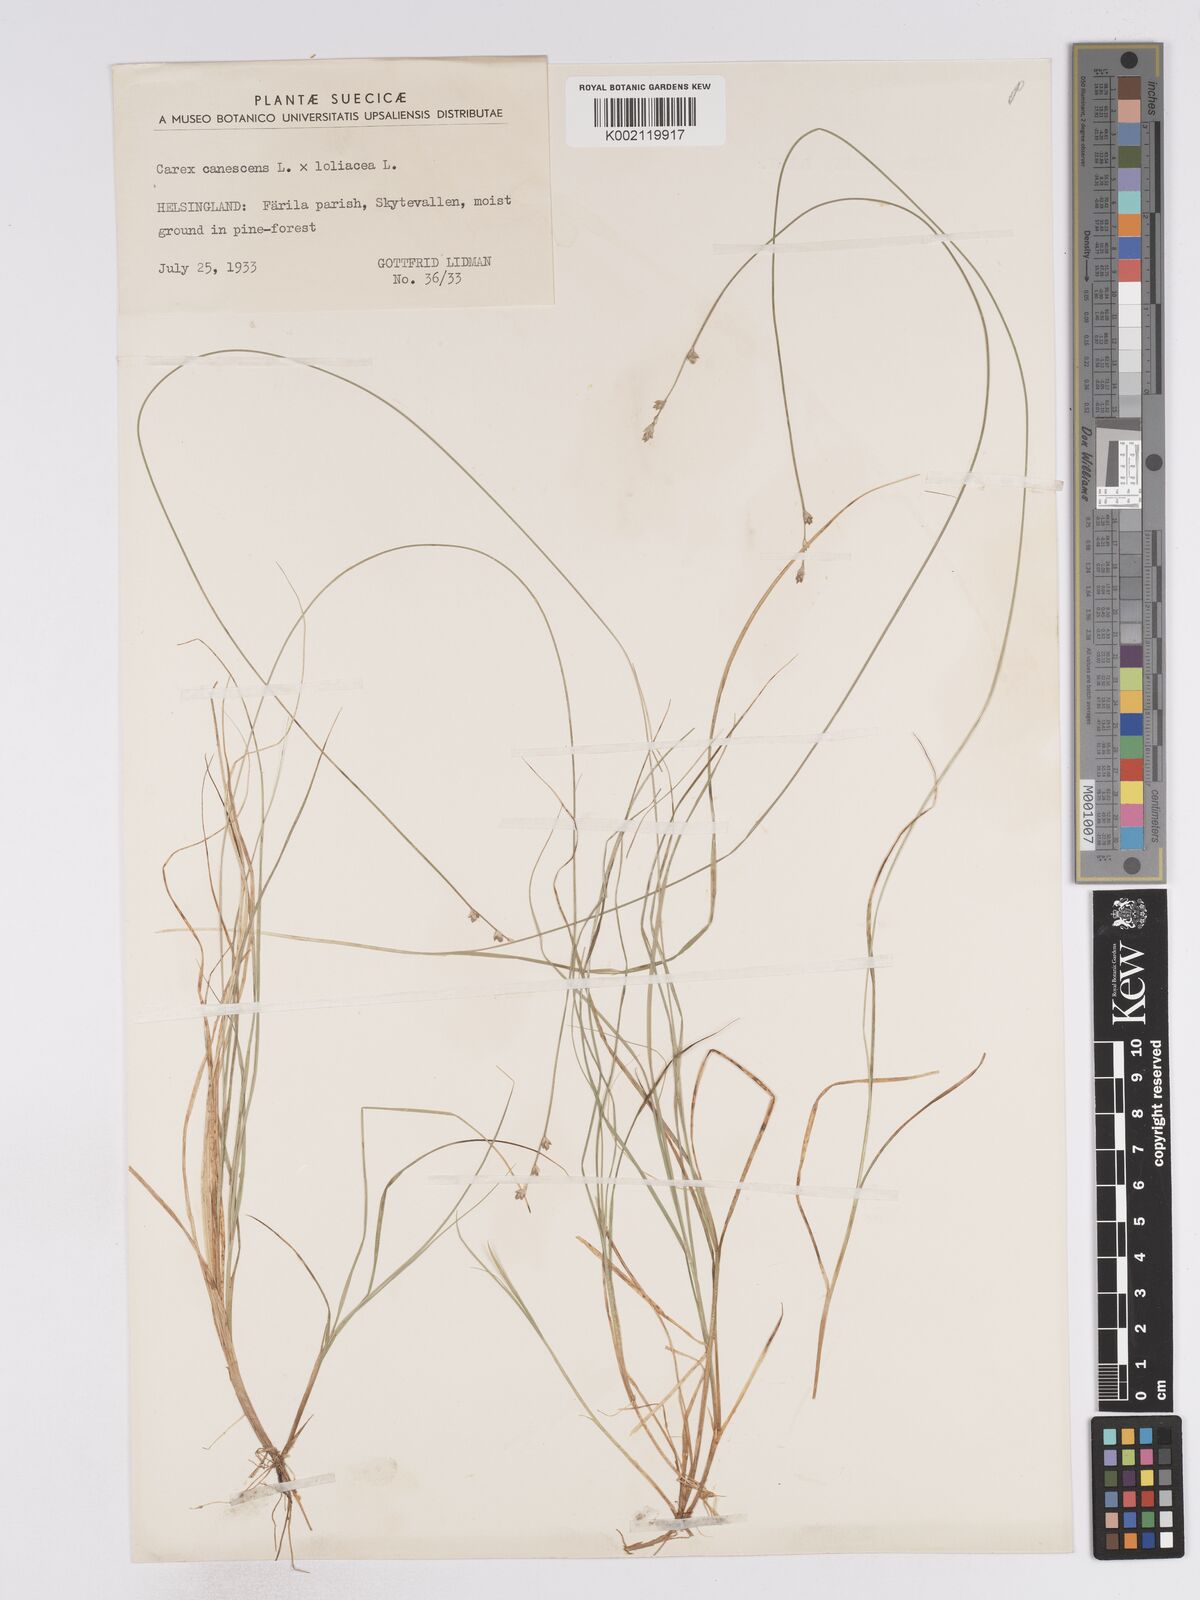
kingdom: Plantae
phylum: Tracheophyta
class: Liliopsida
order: Poales
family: Cyperaceae
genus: Carex
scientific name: Carex curta
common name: White sedge
